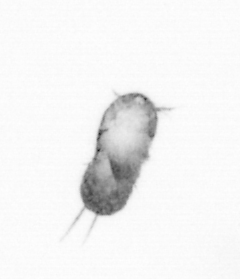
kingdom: Animalia
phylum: Arthropoda
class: Copepoda
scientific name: Copepoda
